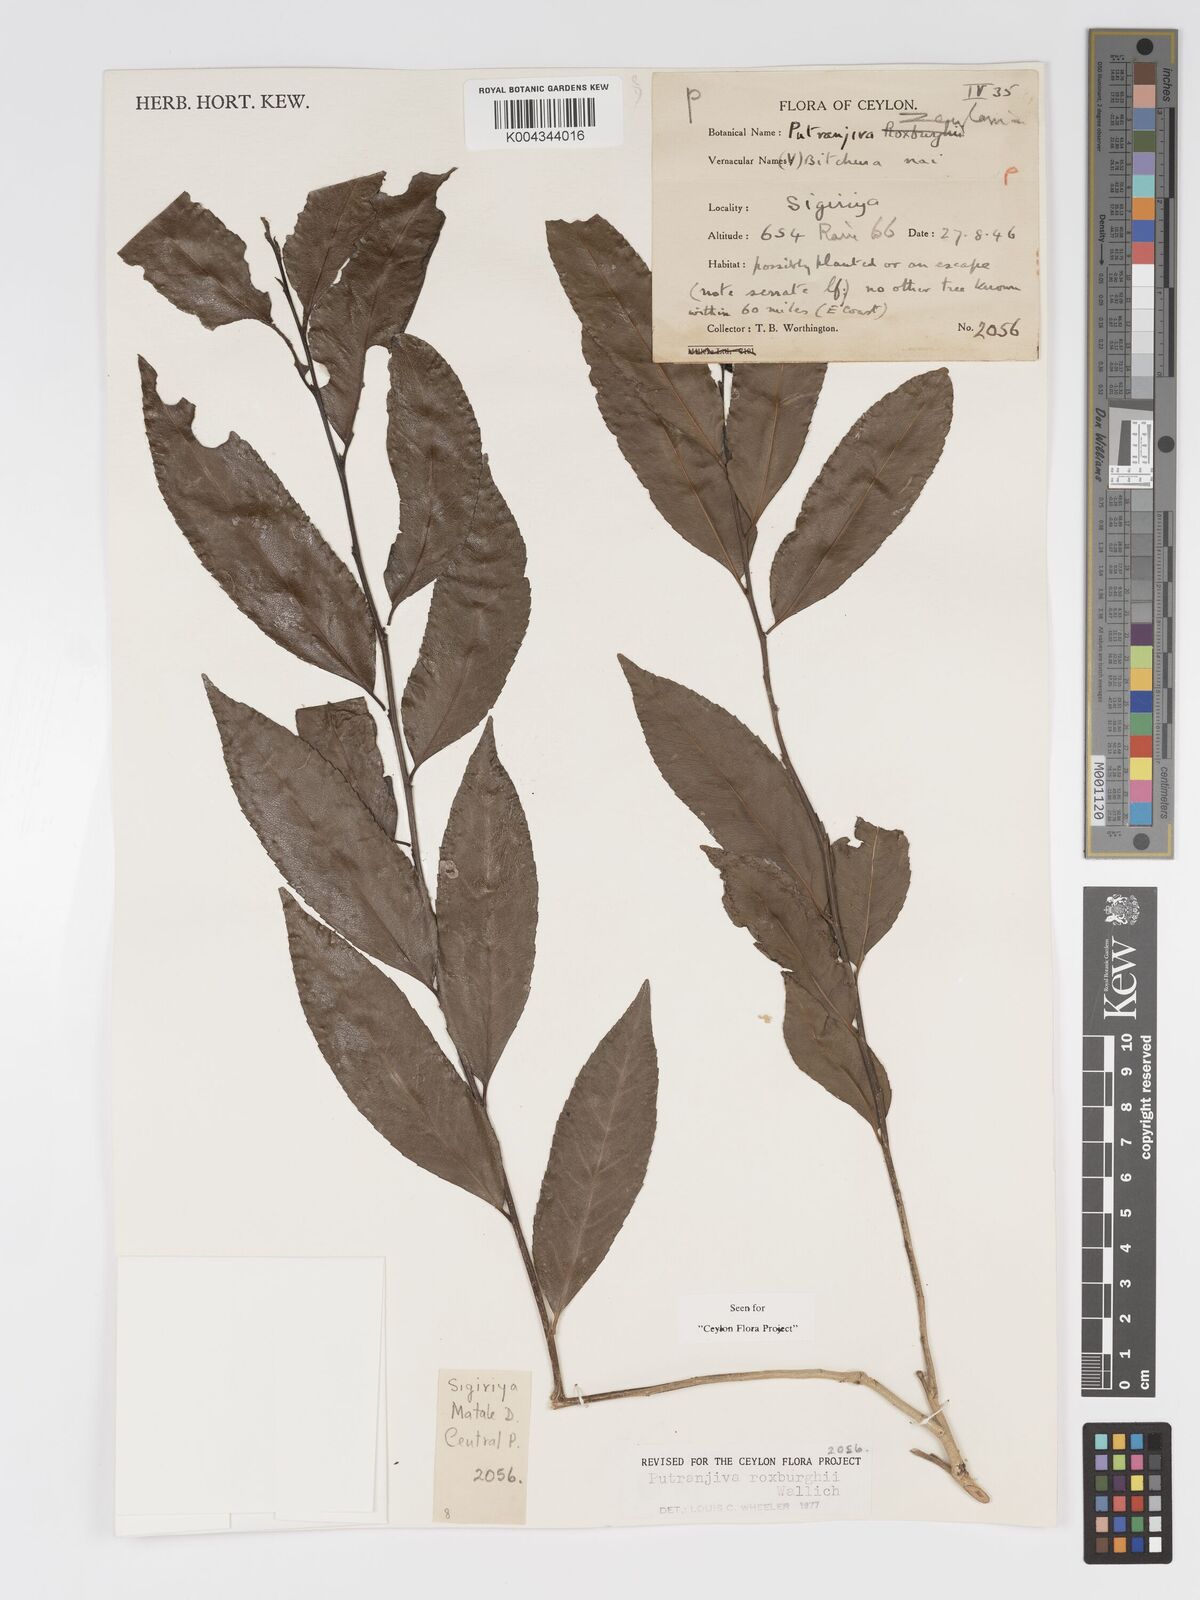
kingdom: Plantae
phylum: Tracheophyta
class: Magnoliopsida
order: Malpighiales
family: Putranjivaceae
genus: Putranjiva
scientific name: Putranjiva roxburghii
